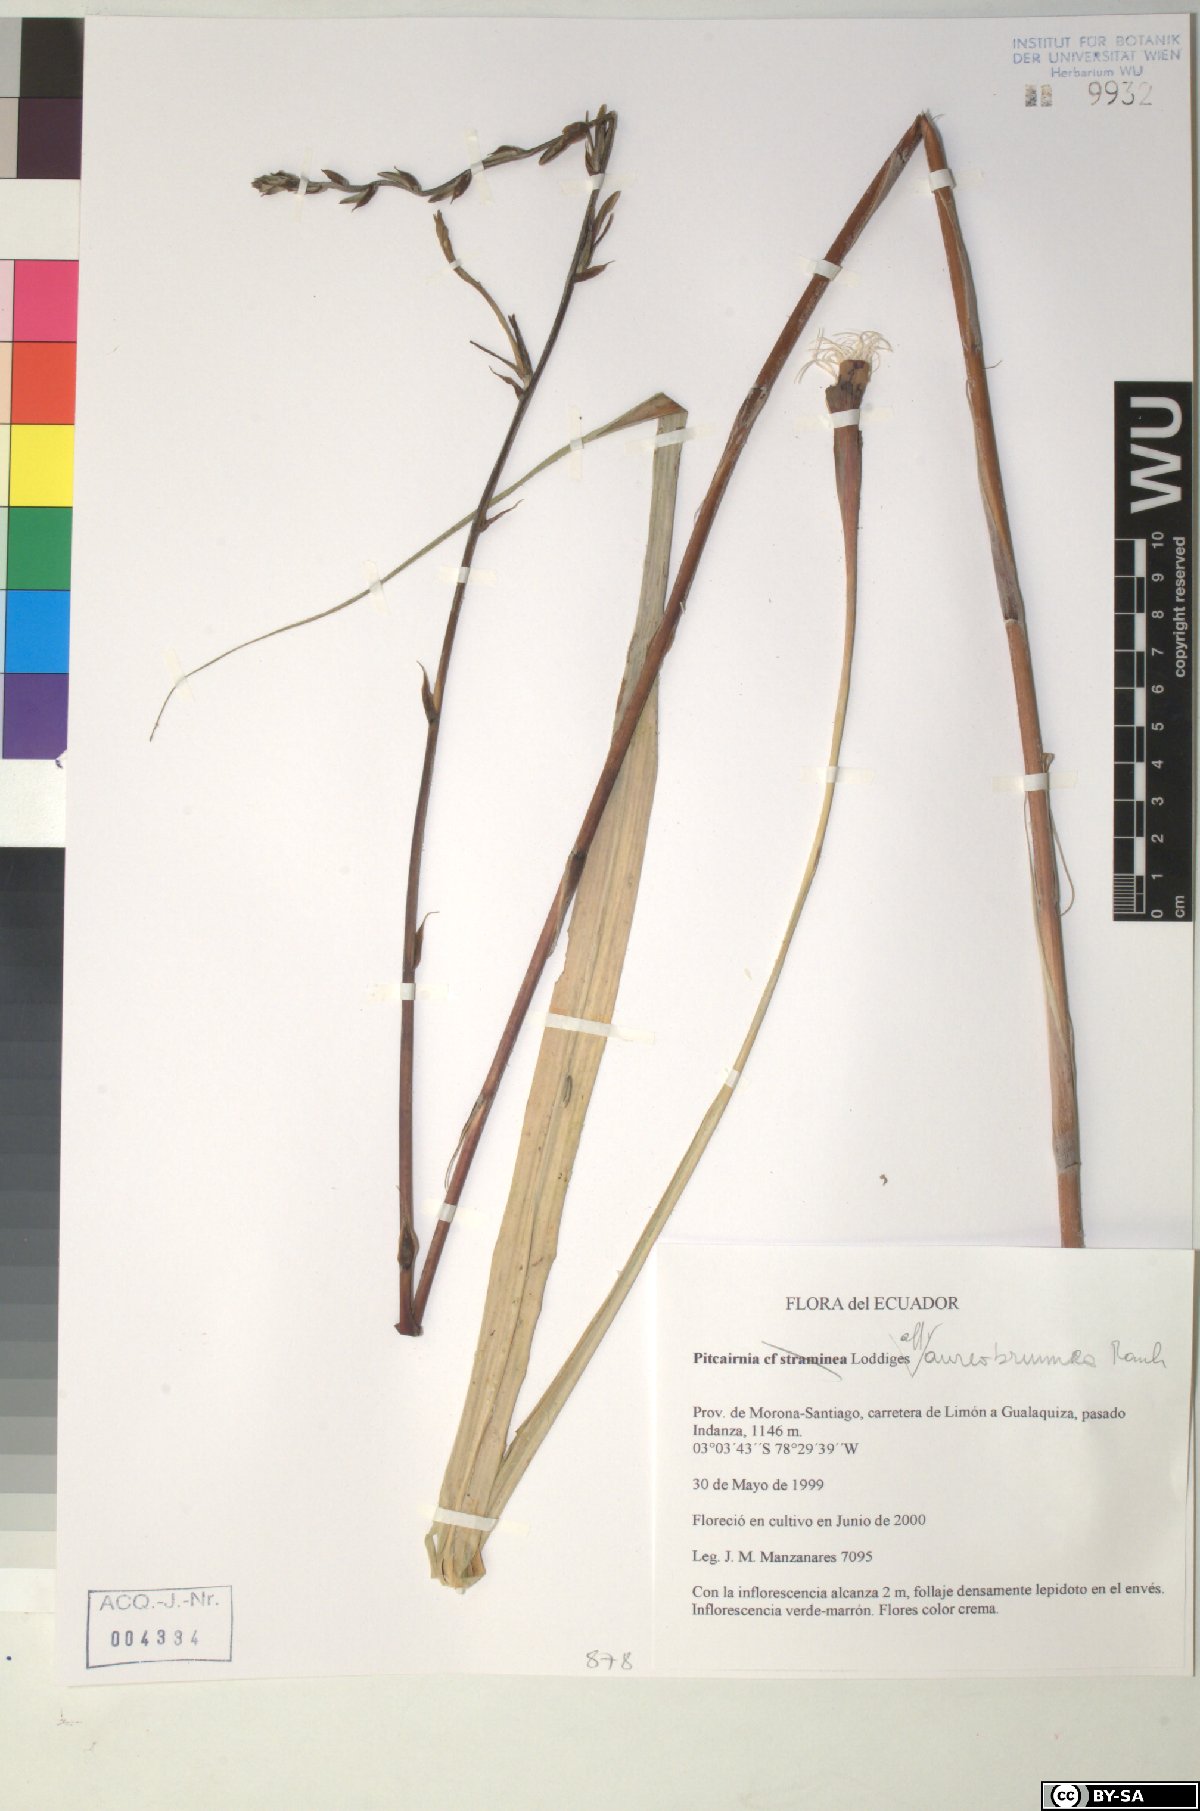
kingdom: Plantae
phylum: Tracheophyta
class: Liliopsida
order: Poales
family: Bromeliaceae
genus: Pitcairnia
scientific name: Pitcairnia aureobrunnea
